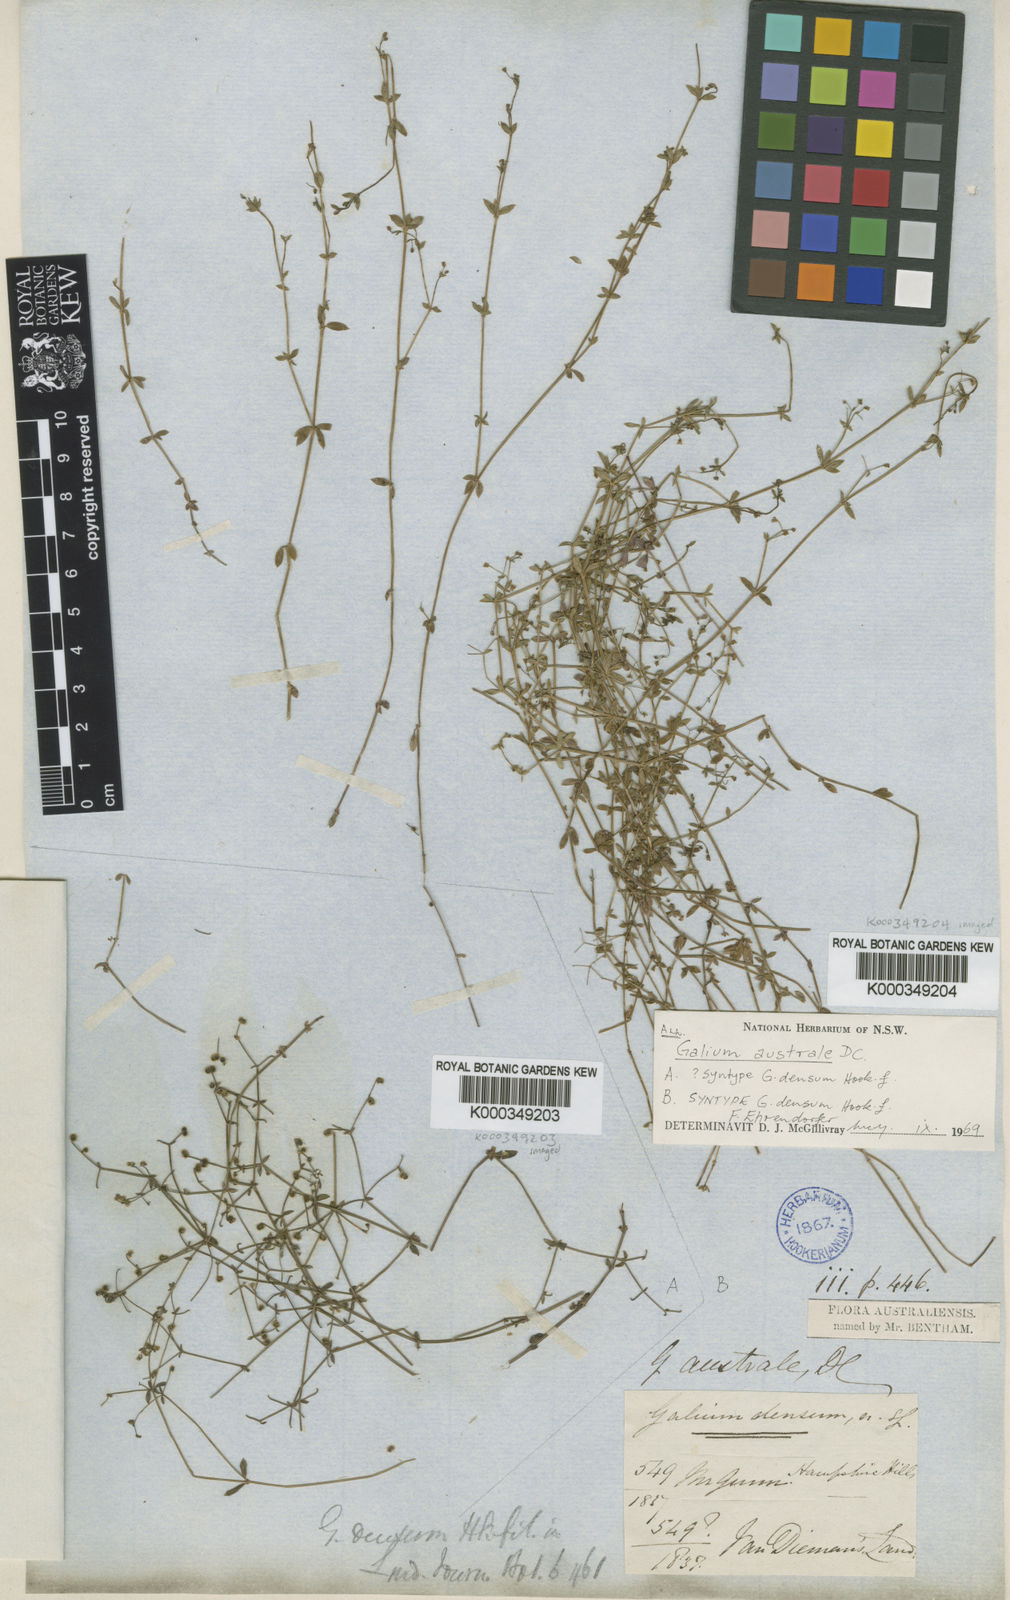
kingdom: Plantae
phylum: Tracheophyta
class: Magnoliopsida
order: Gentianales
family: Rubiaceae
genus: Galium
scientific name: Galium australe
